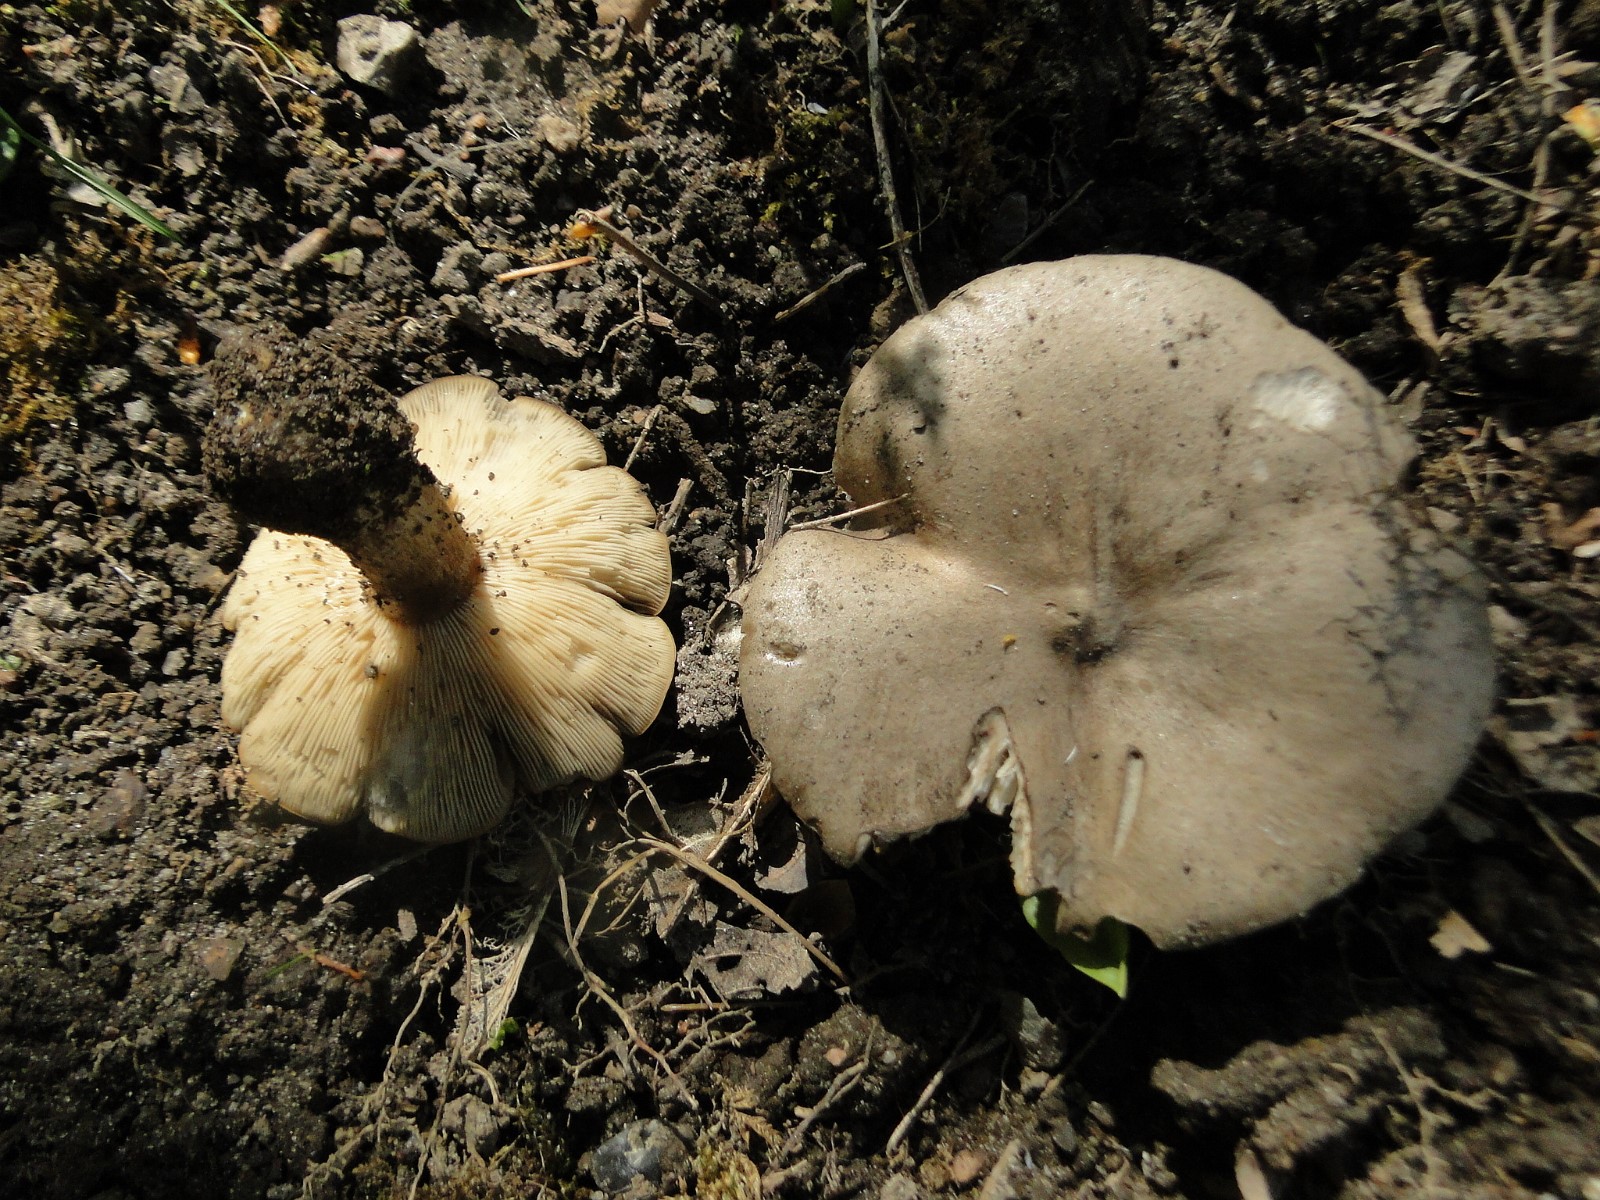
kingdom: Fungi
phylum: Basidiomycota
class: Agaricomycetes
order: Agaricales
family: Tricholomataceae
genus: Melanoleuca
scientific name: Melanoleuca humilis
